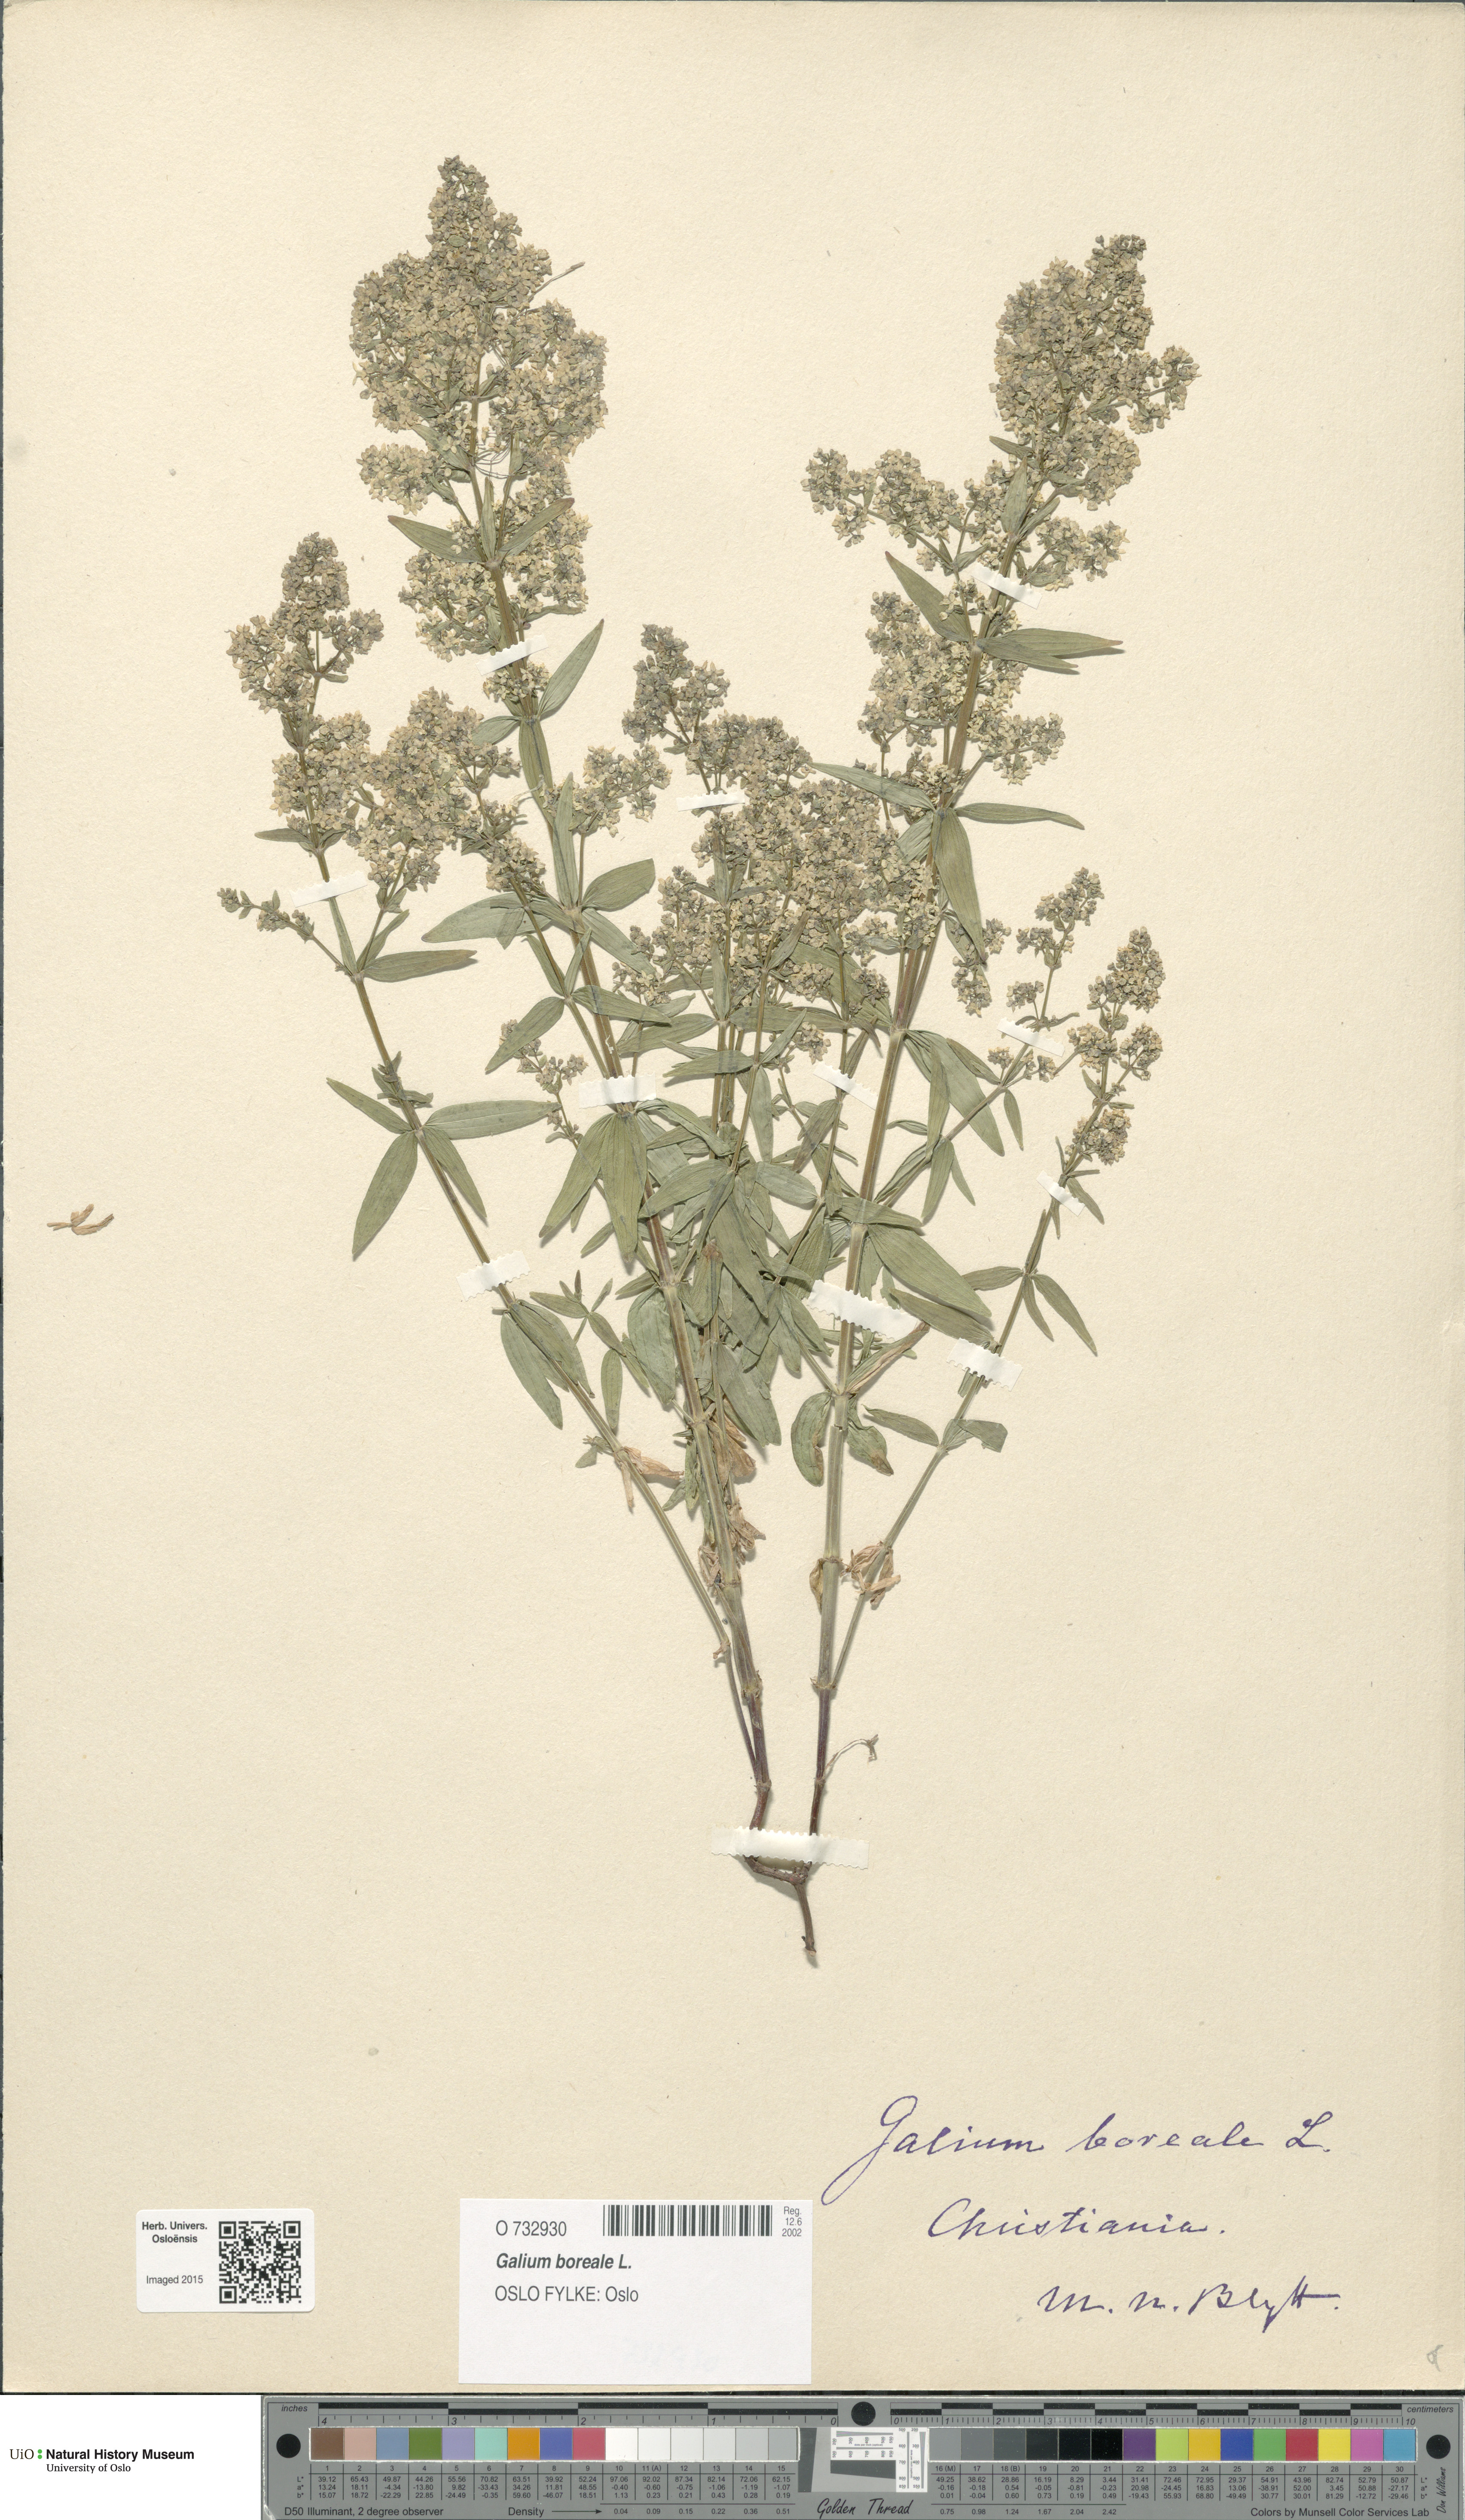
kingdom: Plantae
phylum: Tracheophyta
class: Magnoliopsida
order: Gentianales
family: Rubiaceae
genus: Galium
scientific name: Galium boreale
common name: Northern bedstraw
